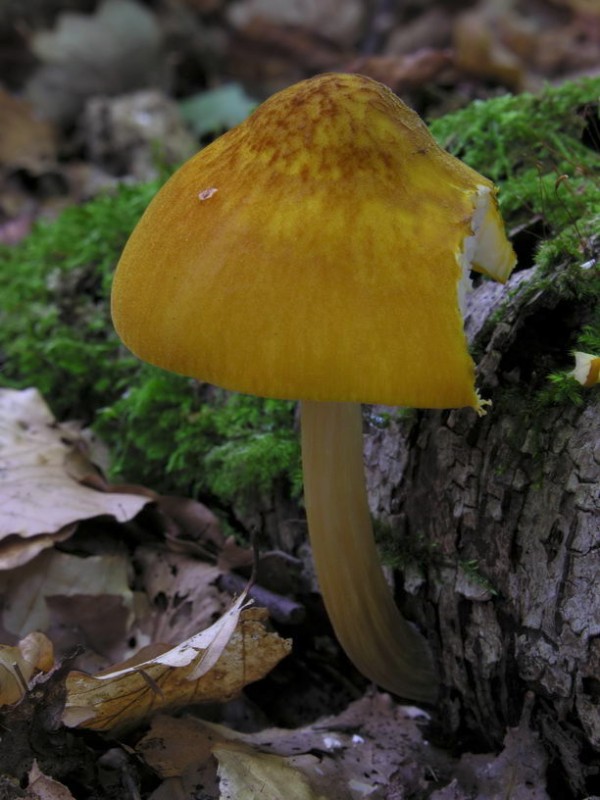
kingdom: Fungi
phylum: Basidiomycota
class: Agaricomycetes
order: Agaricales
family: Pluteaceae
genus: Pluteus
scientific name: Pluteus leoninus
